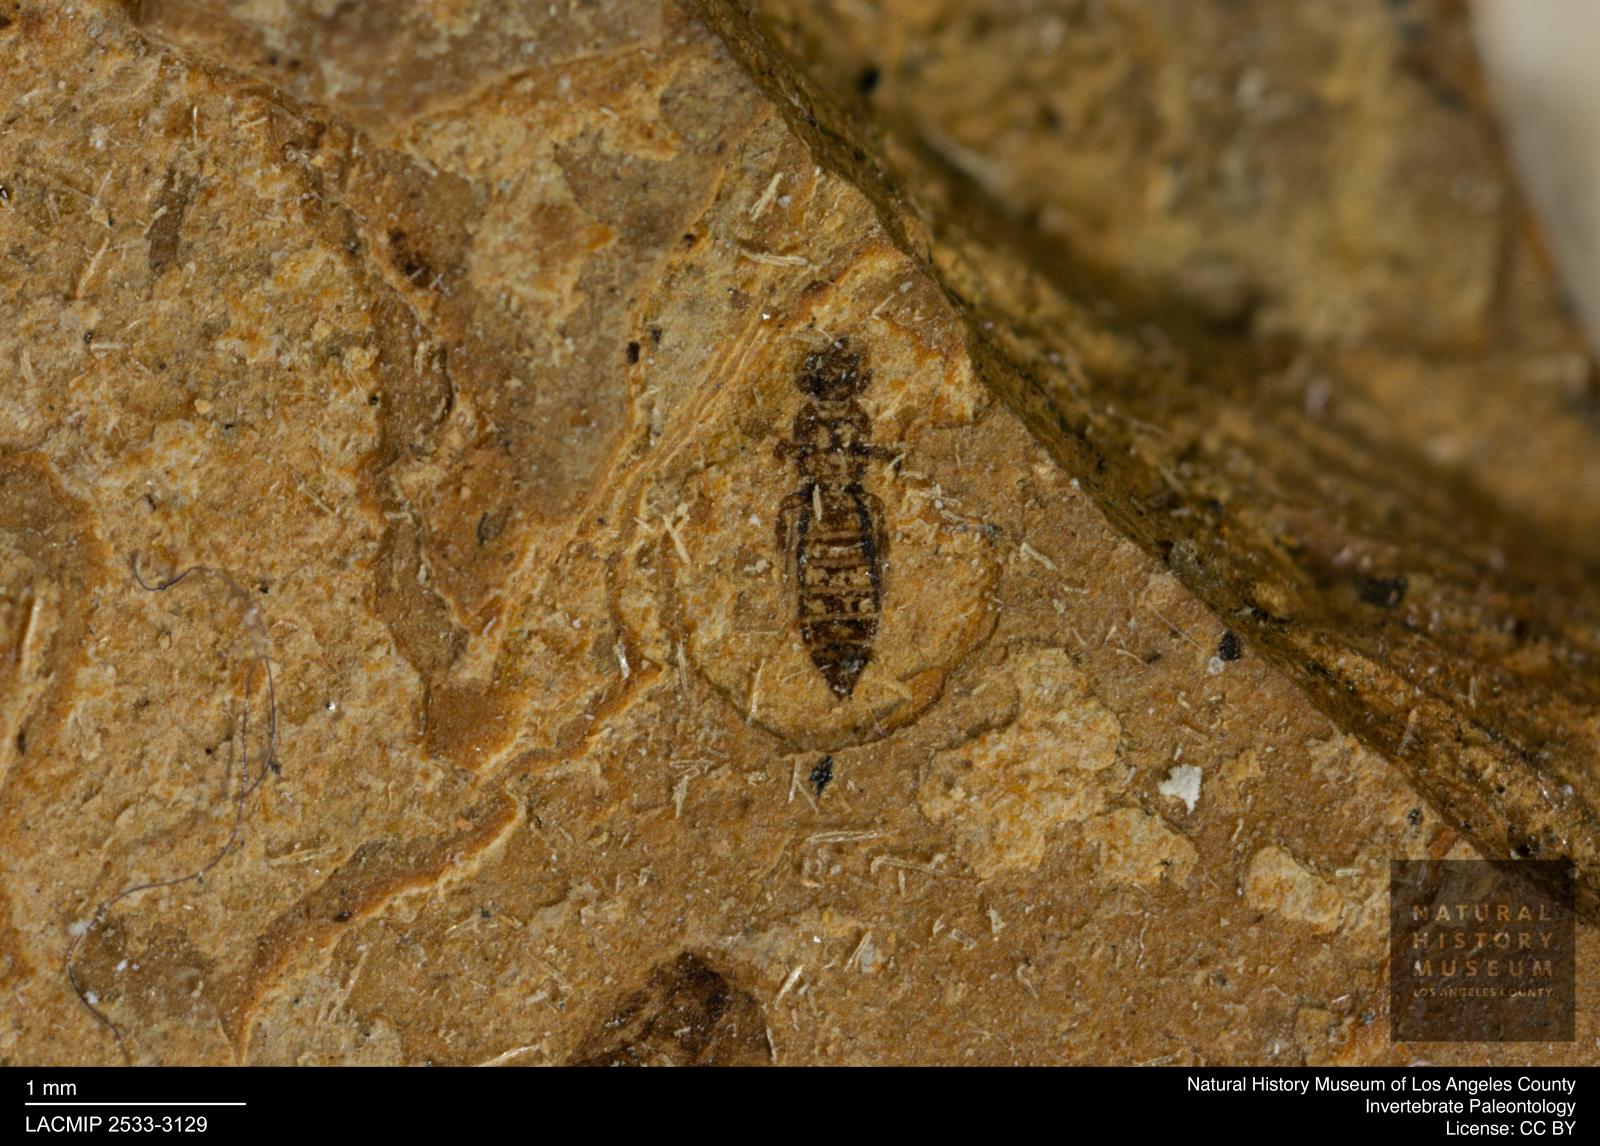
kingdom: Animalia
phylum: Arthropoda
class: Insecta
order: Thysanoptera
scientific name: Thysanoptera
